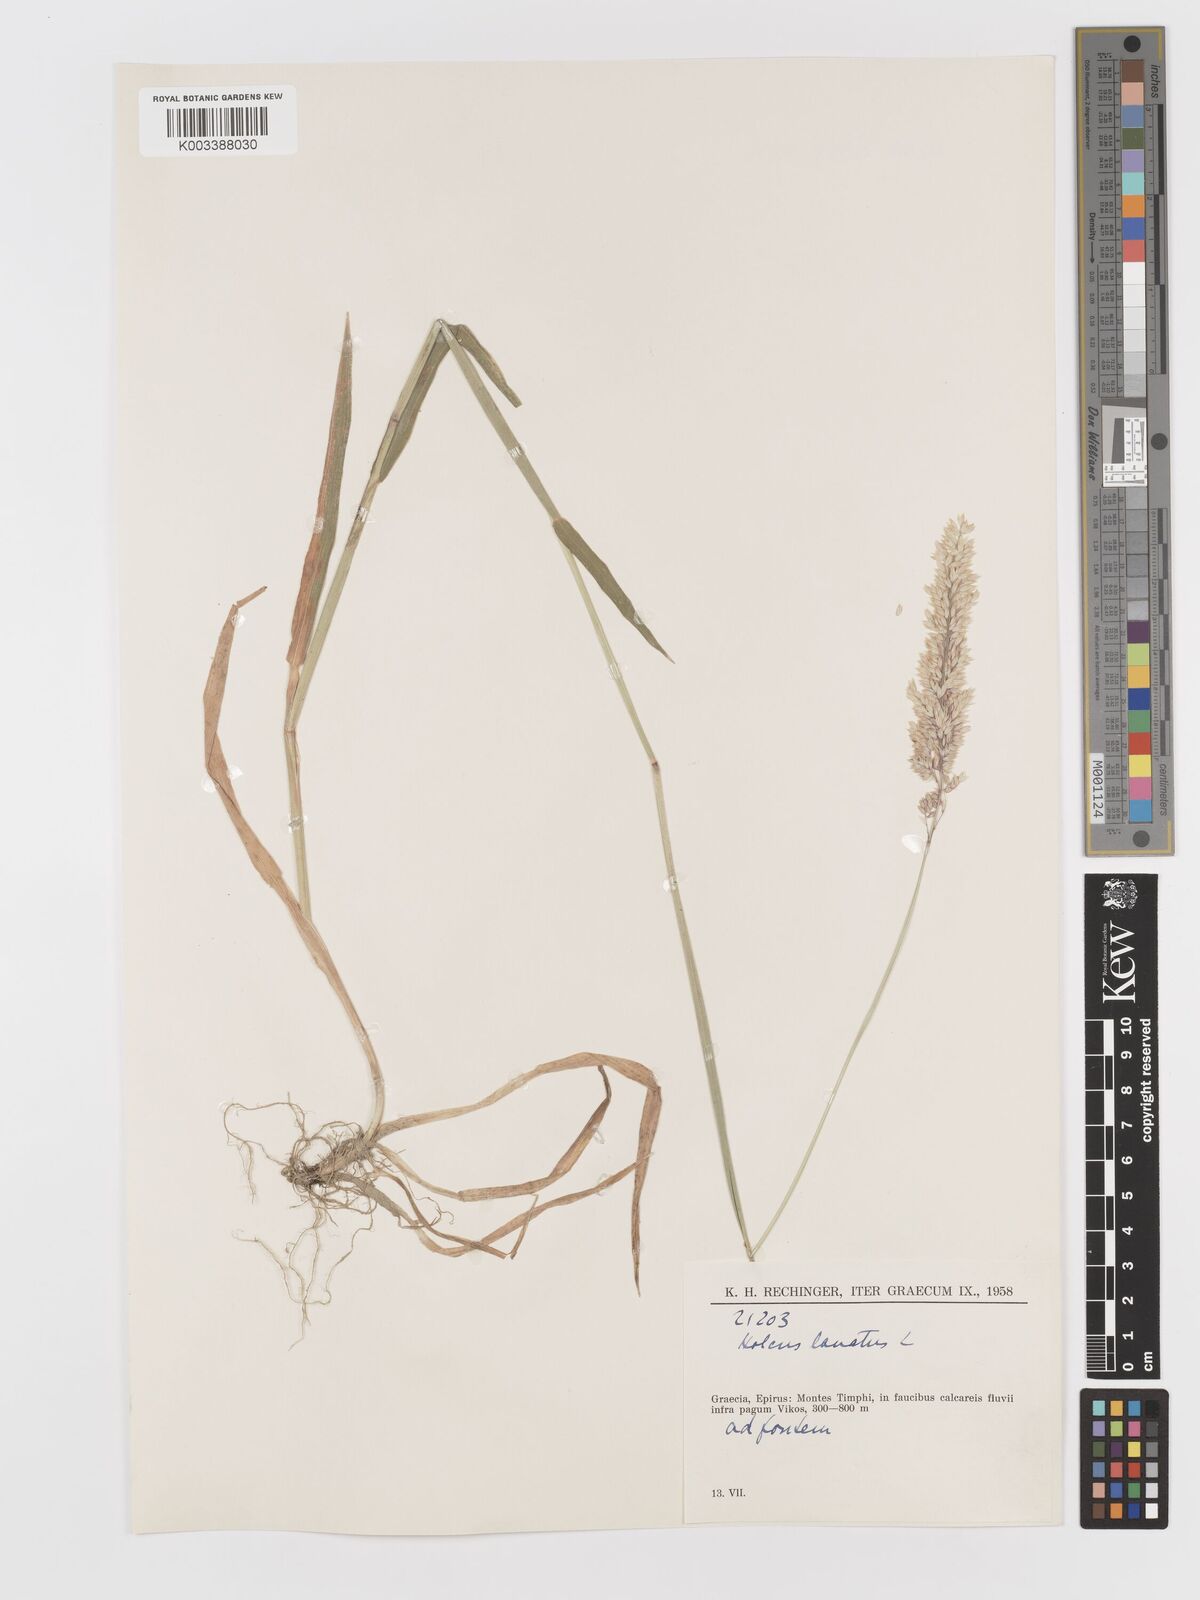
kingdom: Plantae
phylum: Tracheophyta
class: Liliopsida
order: Poales
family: Poaceae
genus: Holcus
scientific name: Holcus lanatus
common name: Yorkshire-fog
